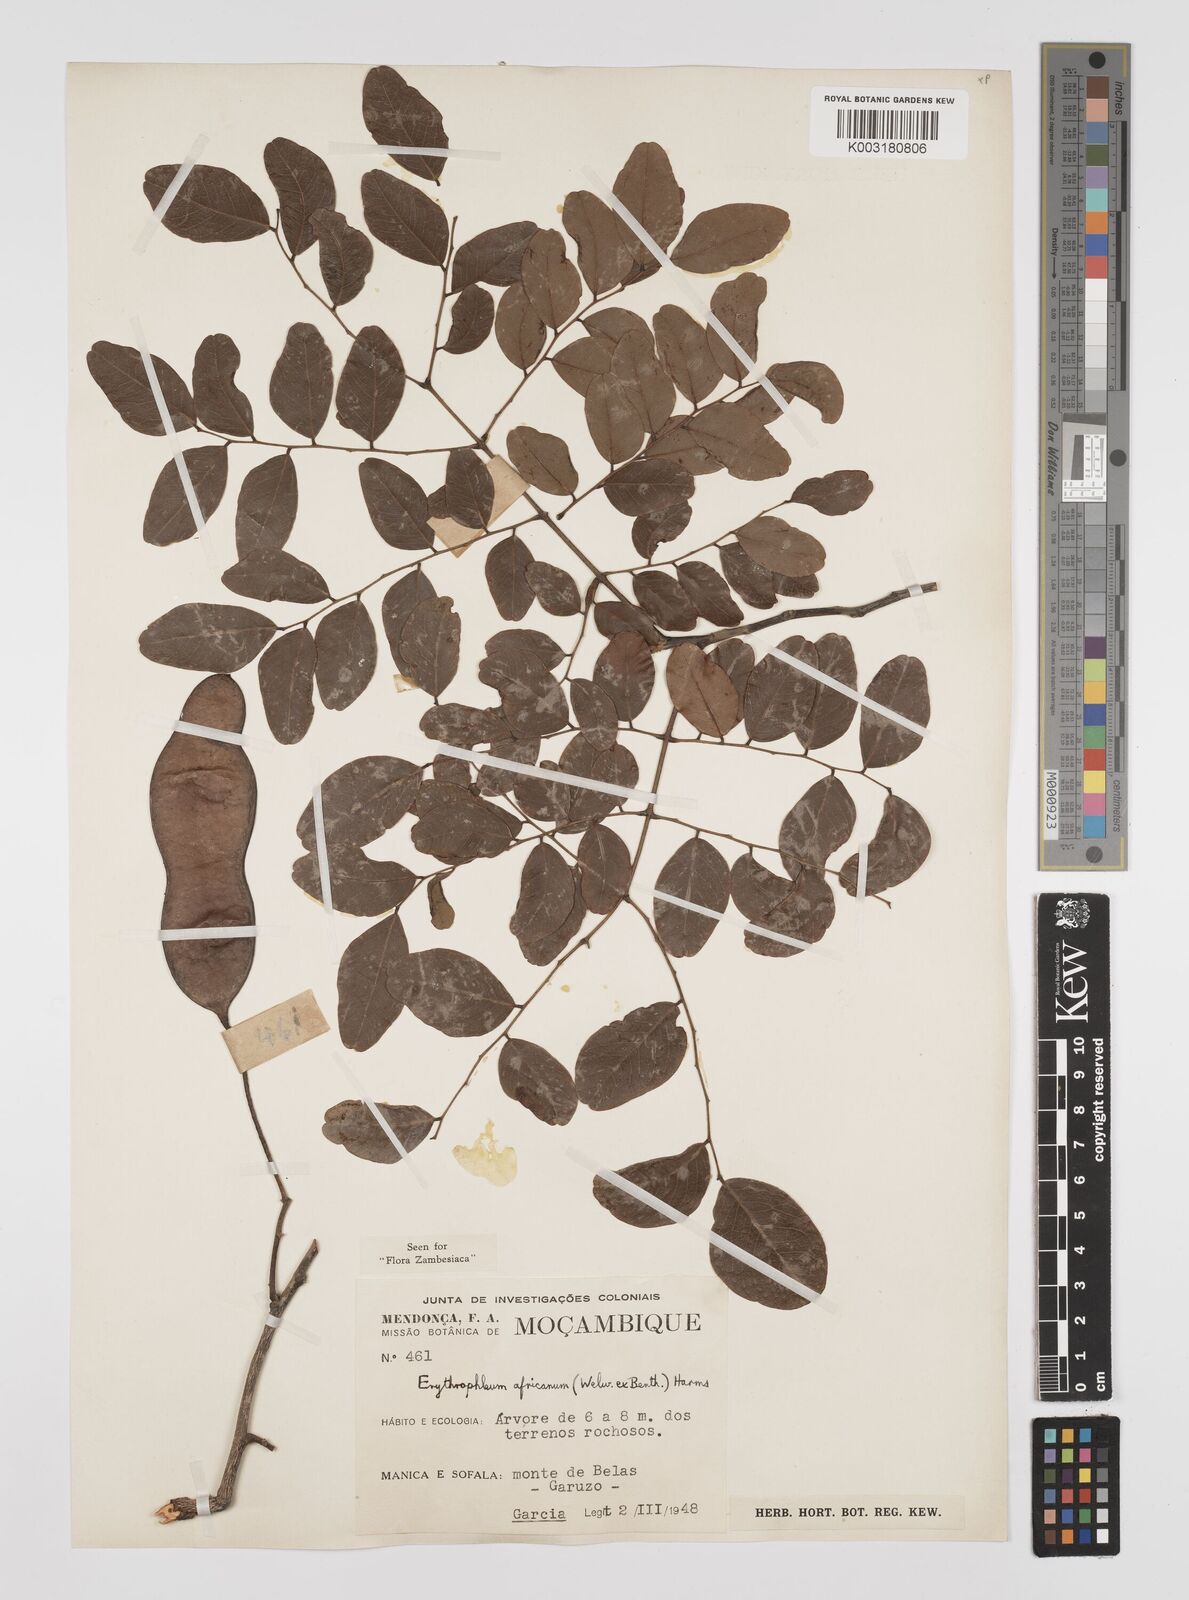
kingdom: Plantae
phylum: Tracheophyta
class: Magnoliopsida
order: Fabales
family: Fabaceae
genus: Peltophorum
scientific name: Peltophorum africanum
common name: African black wattle
